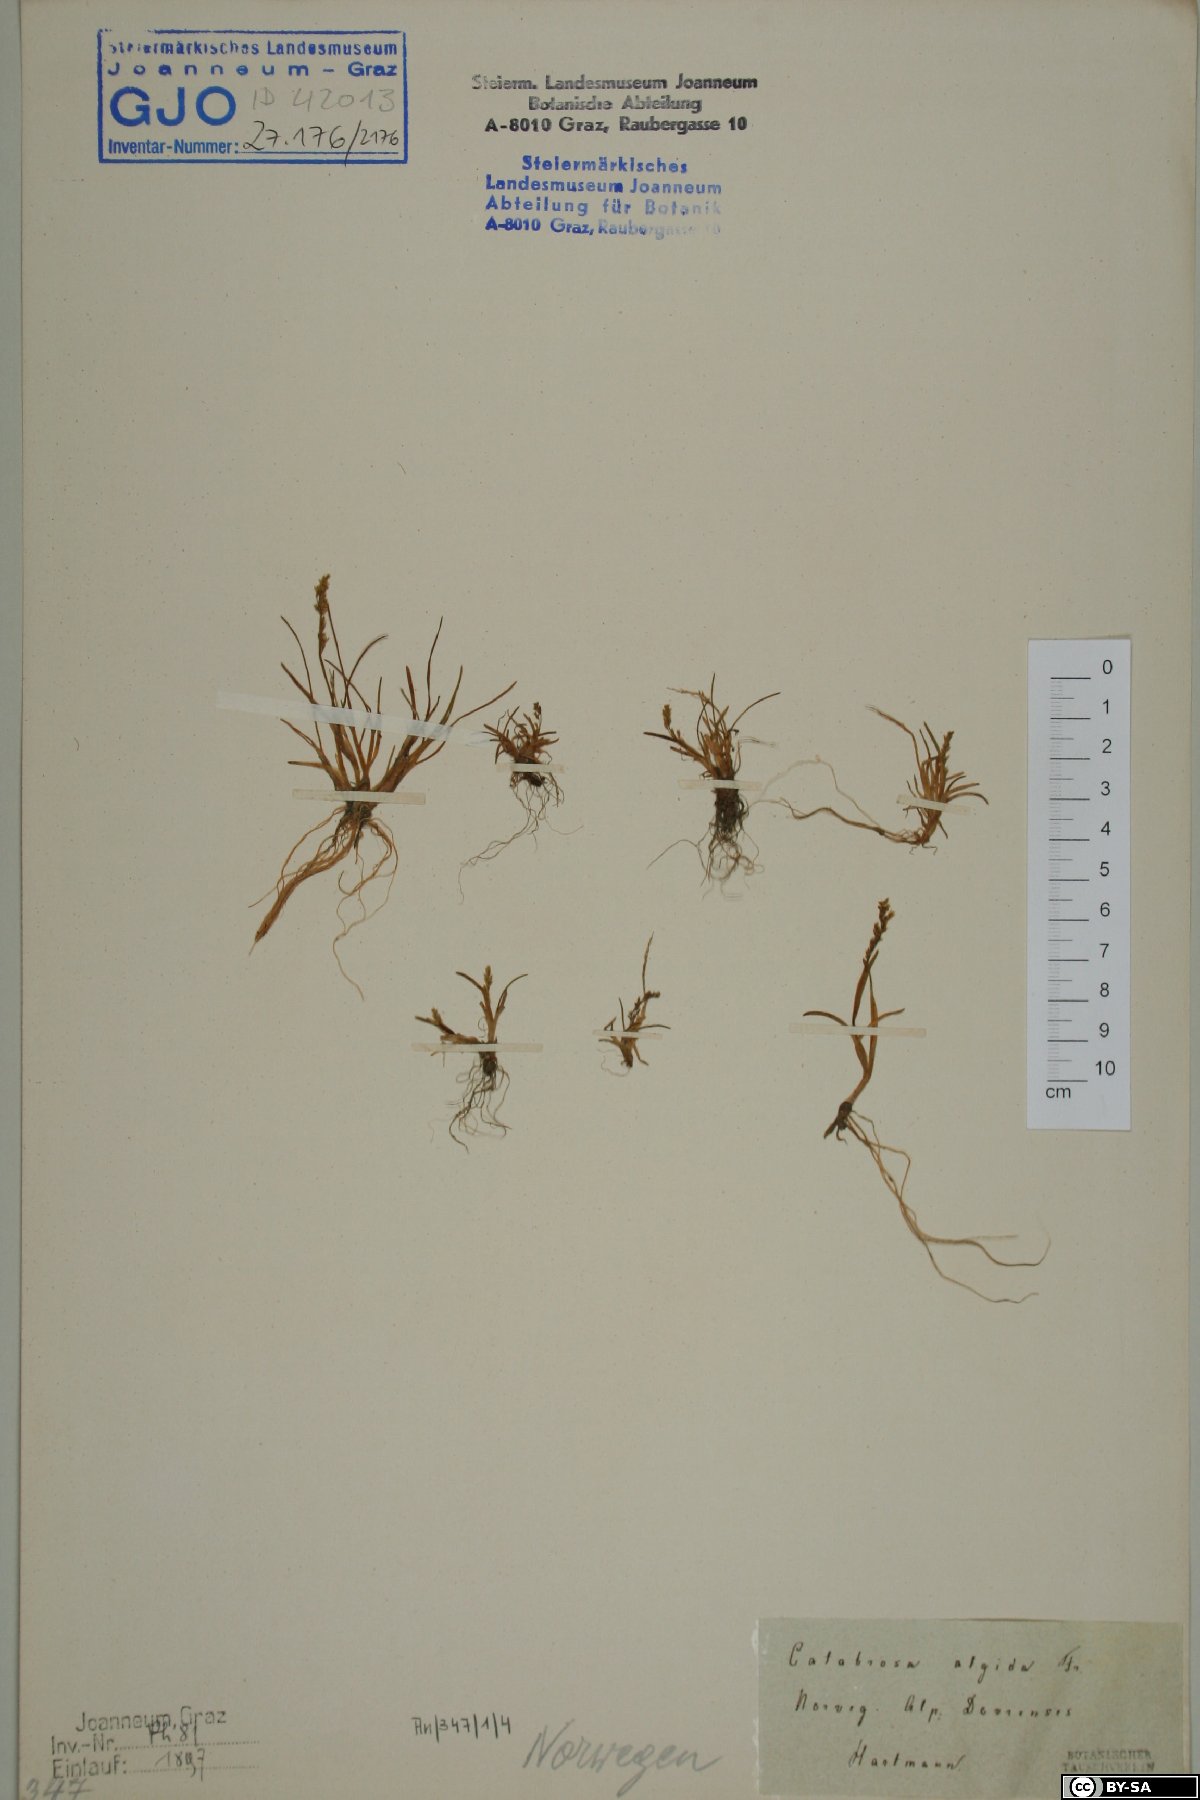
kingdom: Plantae
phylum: Tracheophyta
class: Liliopsida
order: Poales
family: Poaceae
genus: Phippsia
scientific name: Phippsia algida
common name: Ice grass
